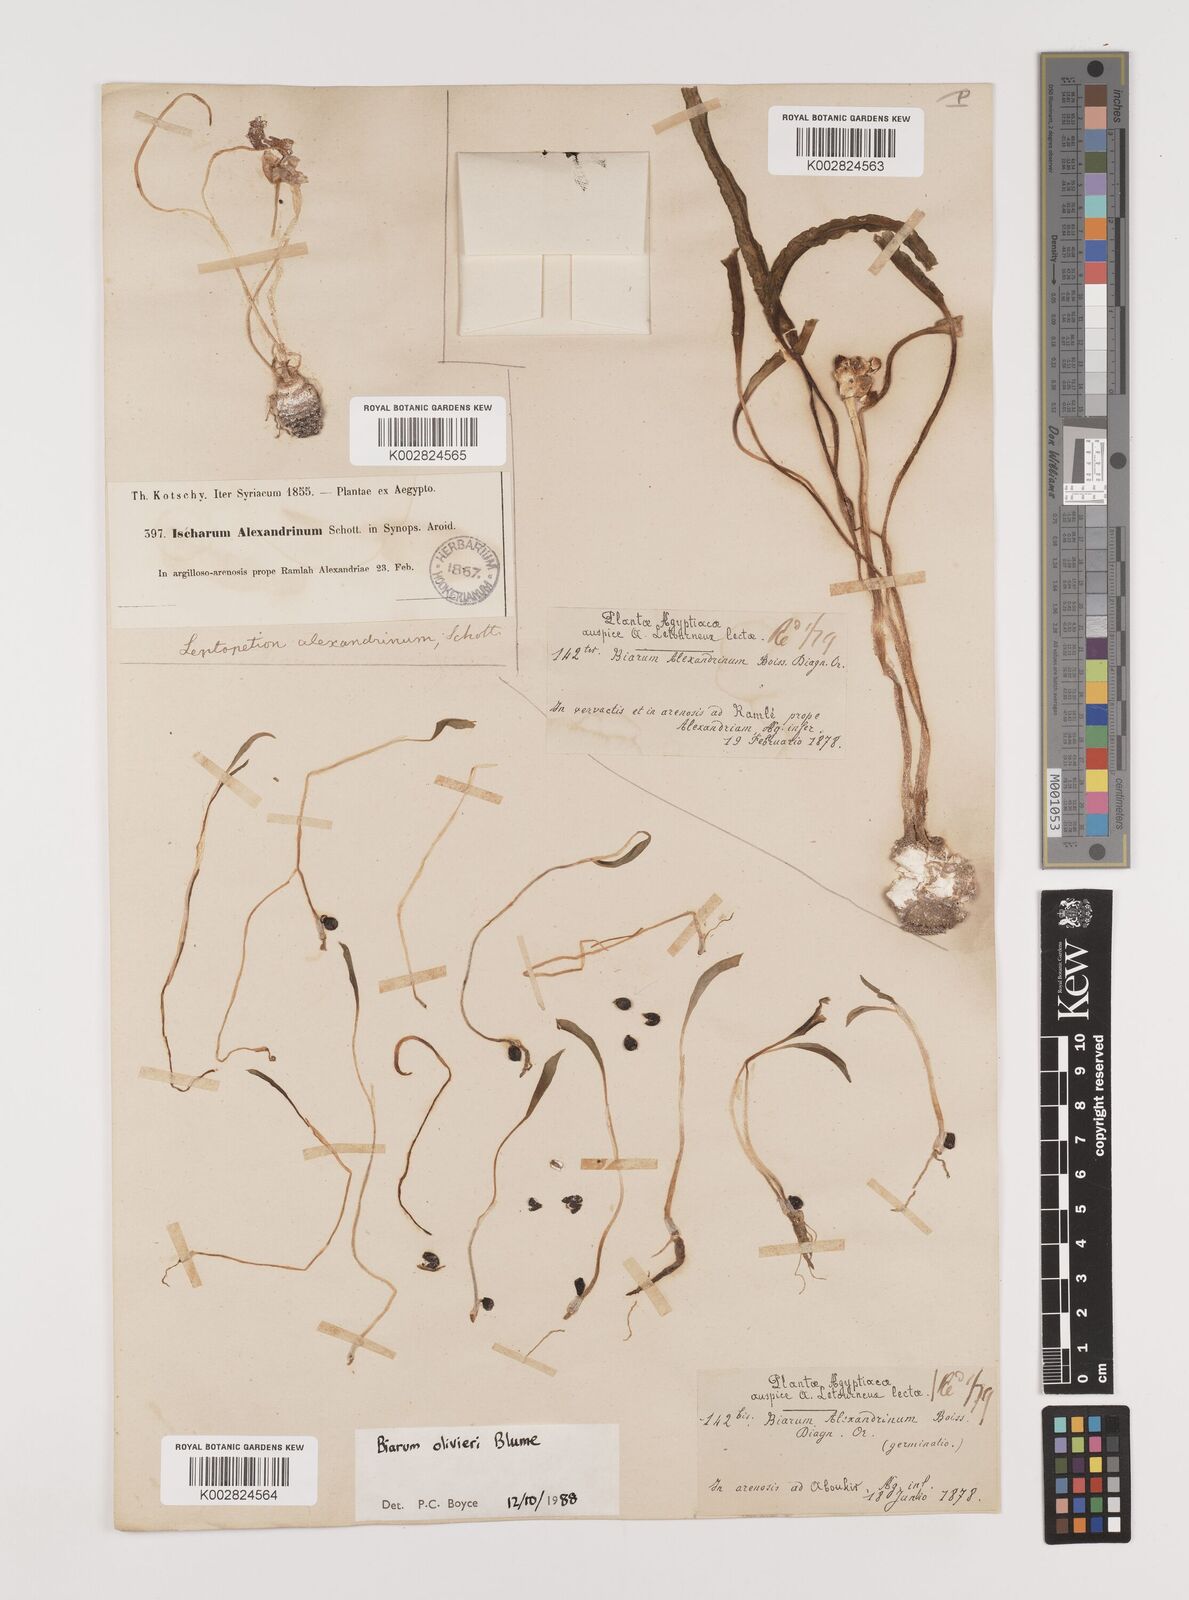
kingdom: Plantae
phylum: Tracheophyta
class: Liliopsida
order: Alismatales
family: Araceae
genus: Biarum
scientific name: Biarum olivieri
